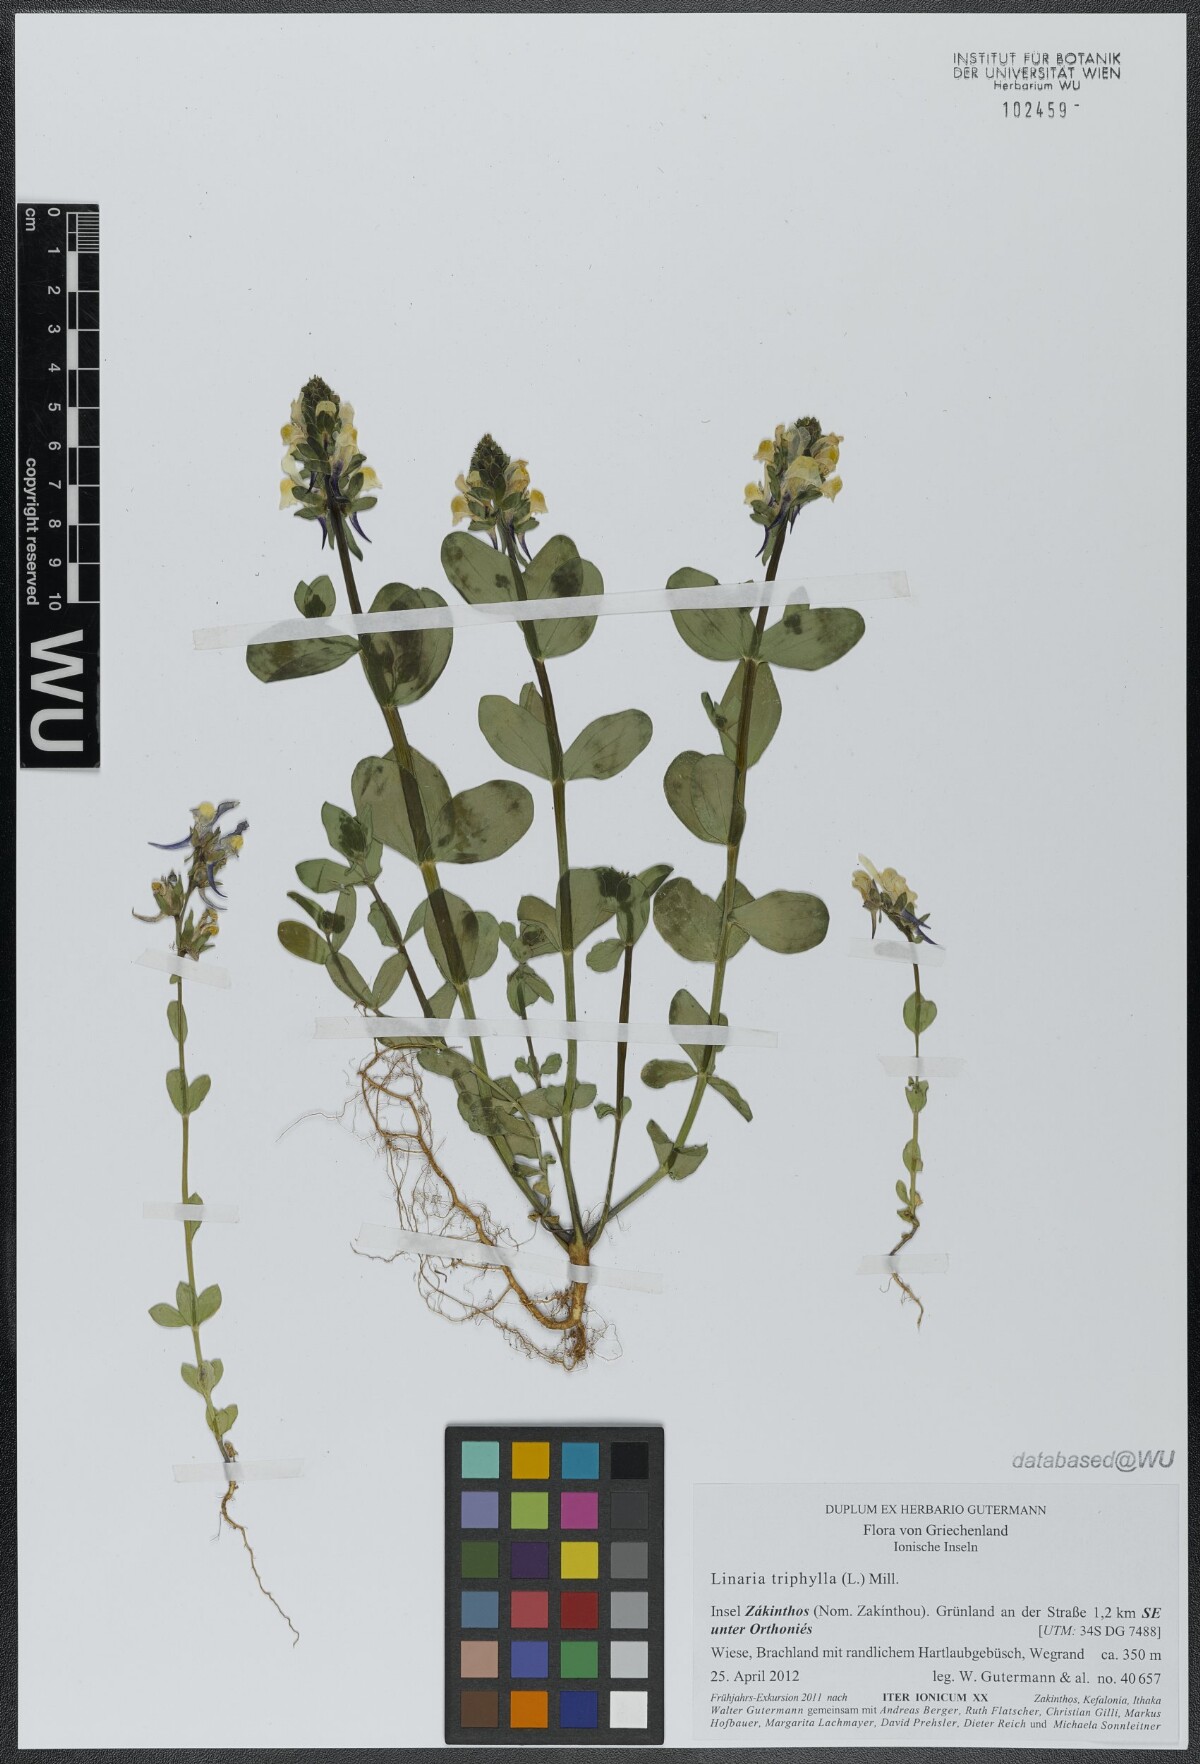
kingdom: Plantae
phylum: Tracheophyta
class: Magnoliopsida
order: Lamiales
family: Plantaginaceae
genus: Linaria
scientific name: Linaria triphylla
